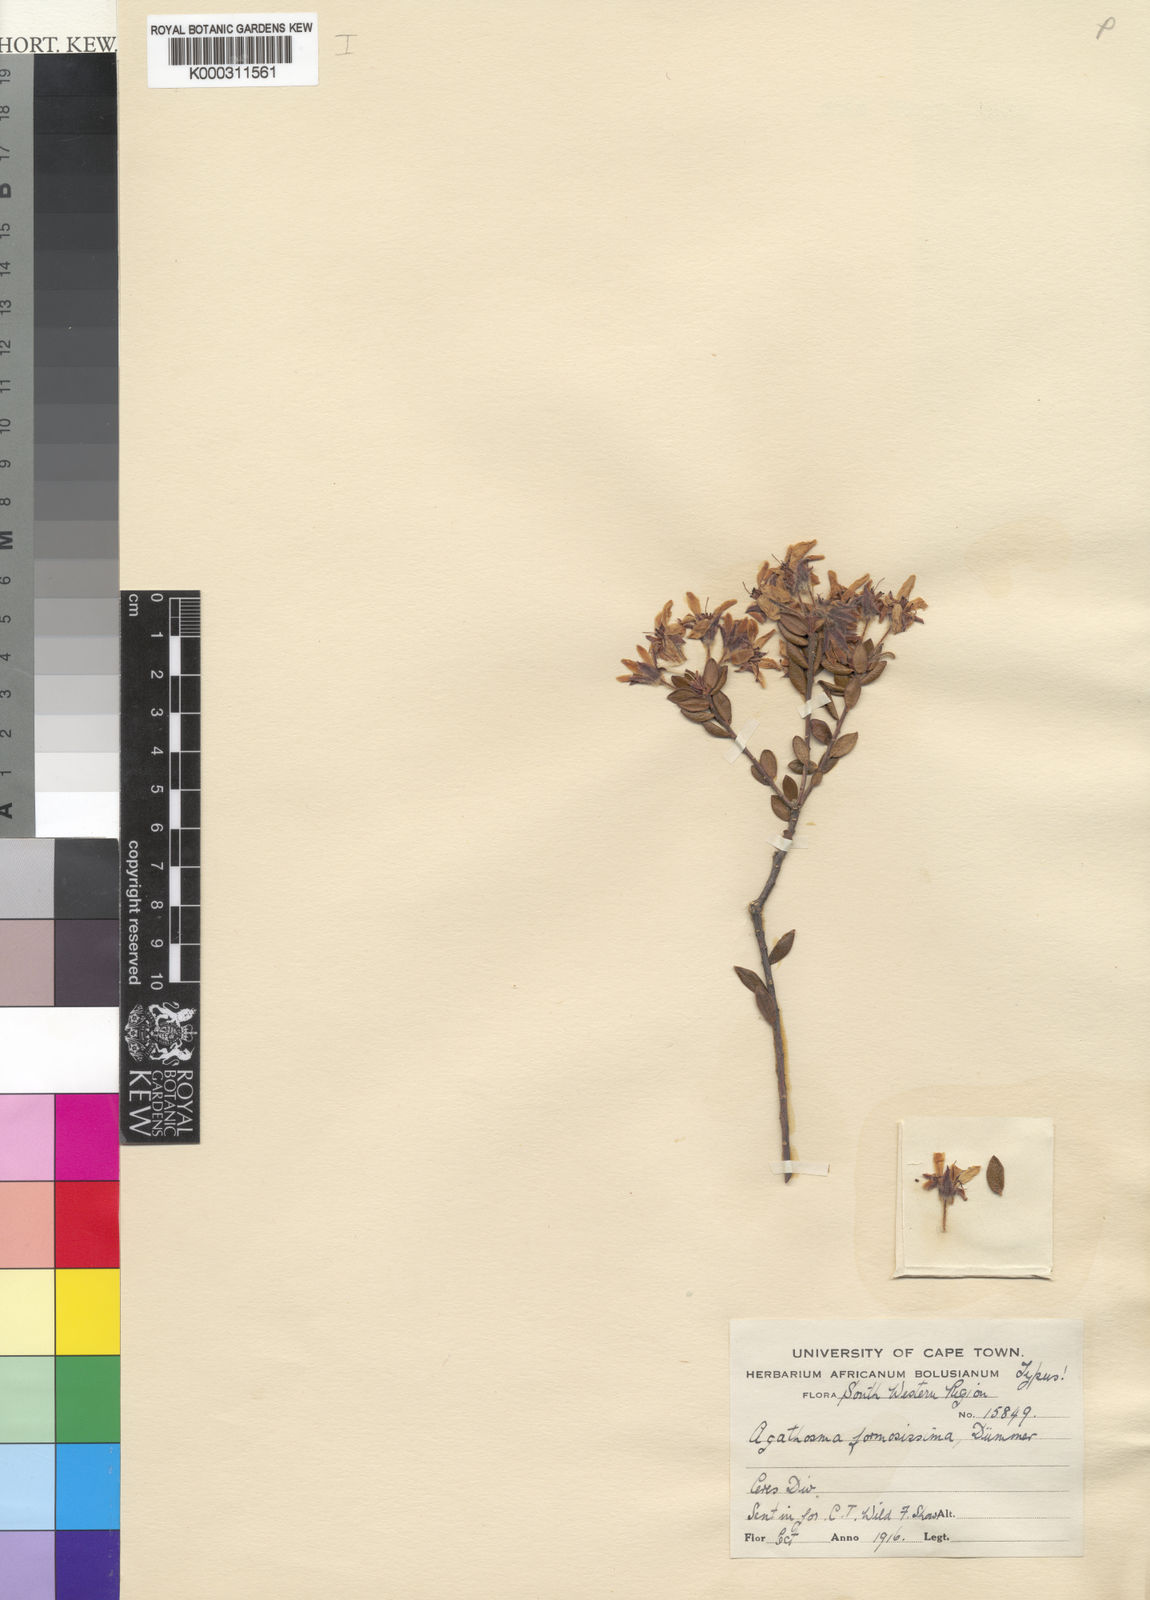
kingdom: Plantae
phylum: Tracheophyta
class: Magnoliopsida
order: Sapindales
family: Rutaceae
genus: Agathosma
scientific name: Agathosma adenandriflora
